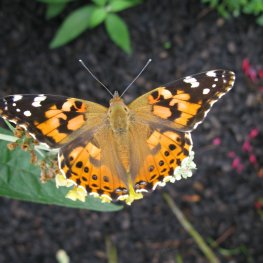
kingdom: Animalia
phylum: Arthropoda
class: Insecta
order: Lepidoptera
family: Nymphalidae
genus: Vanessa
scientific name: Vanessa cardui
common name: Painted Lady
